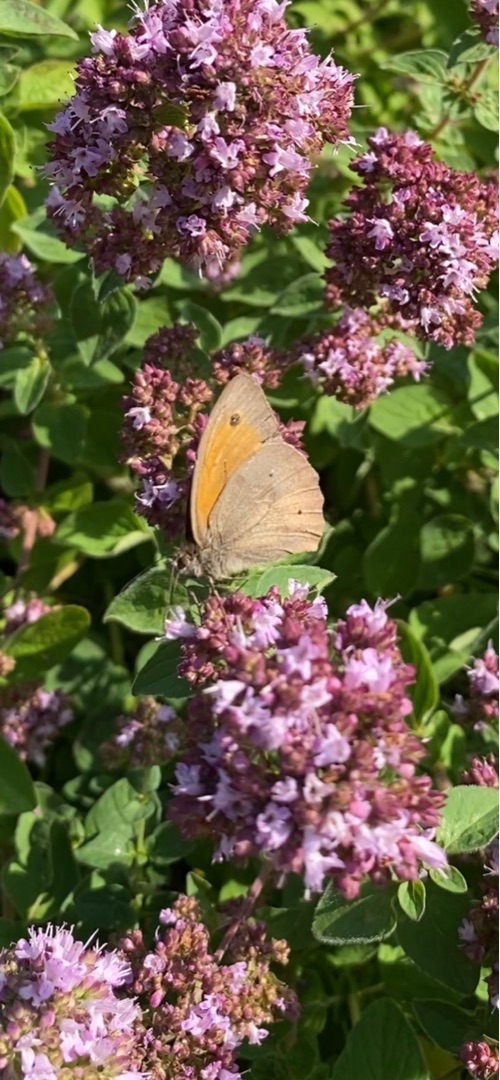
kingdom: Animalia
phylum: Arthropoda
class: Insecta
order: Lepidoptera
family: Nymphalidae
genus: Maniola
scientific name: Maniola jurtina
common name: Græsrandøje
